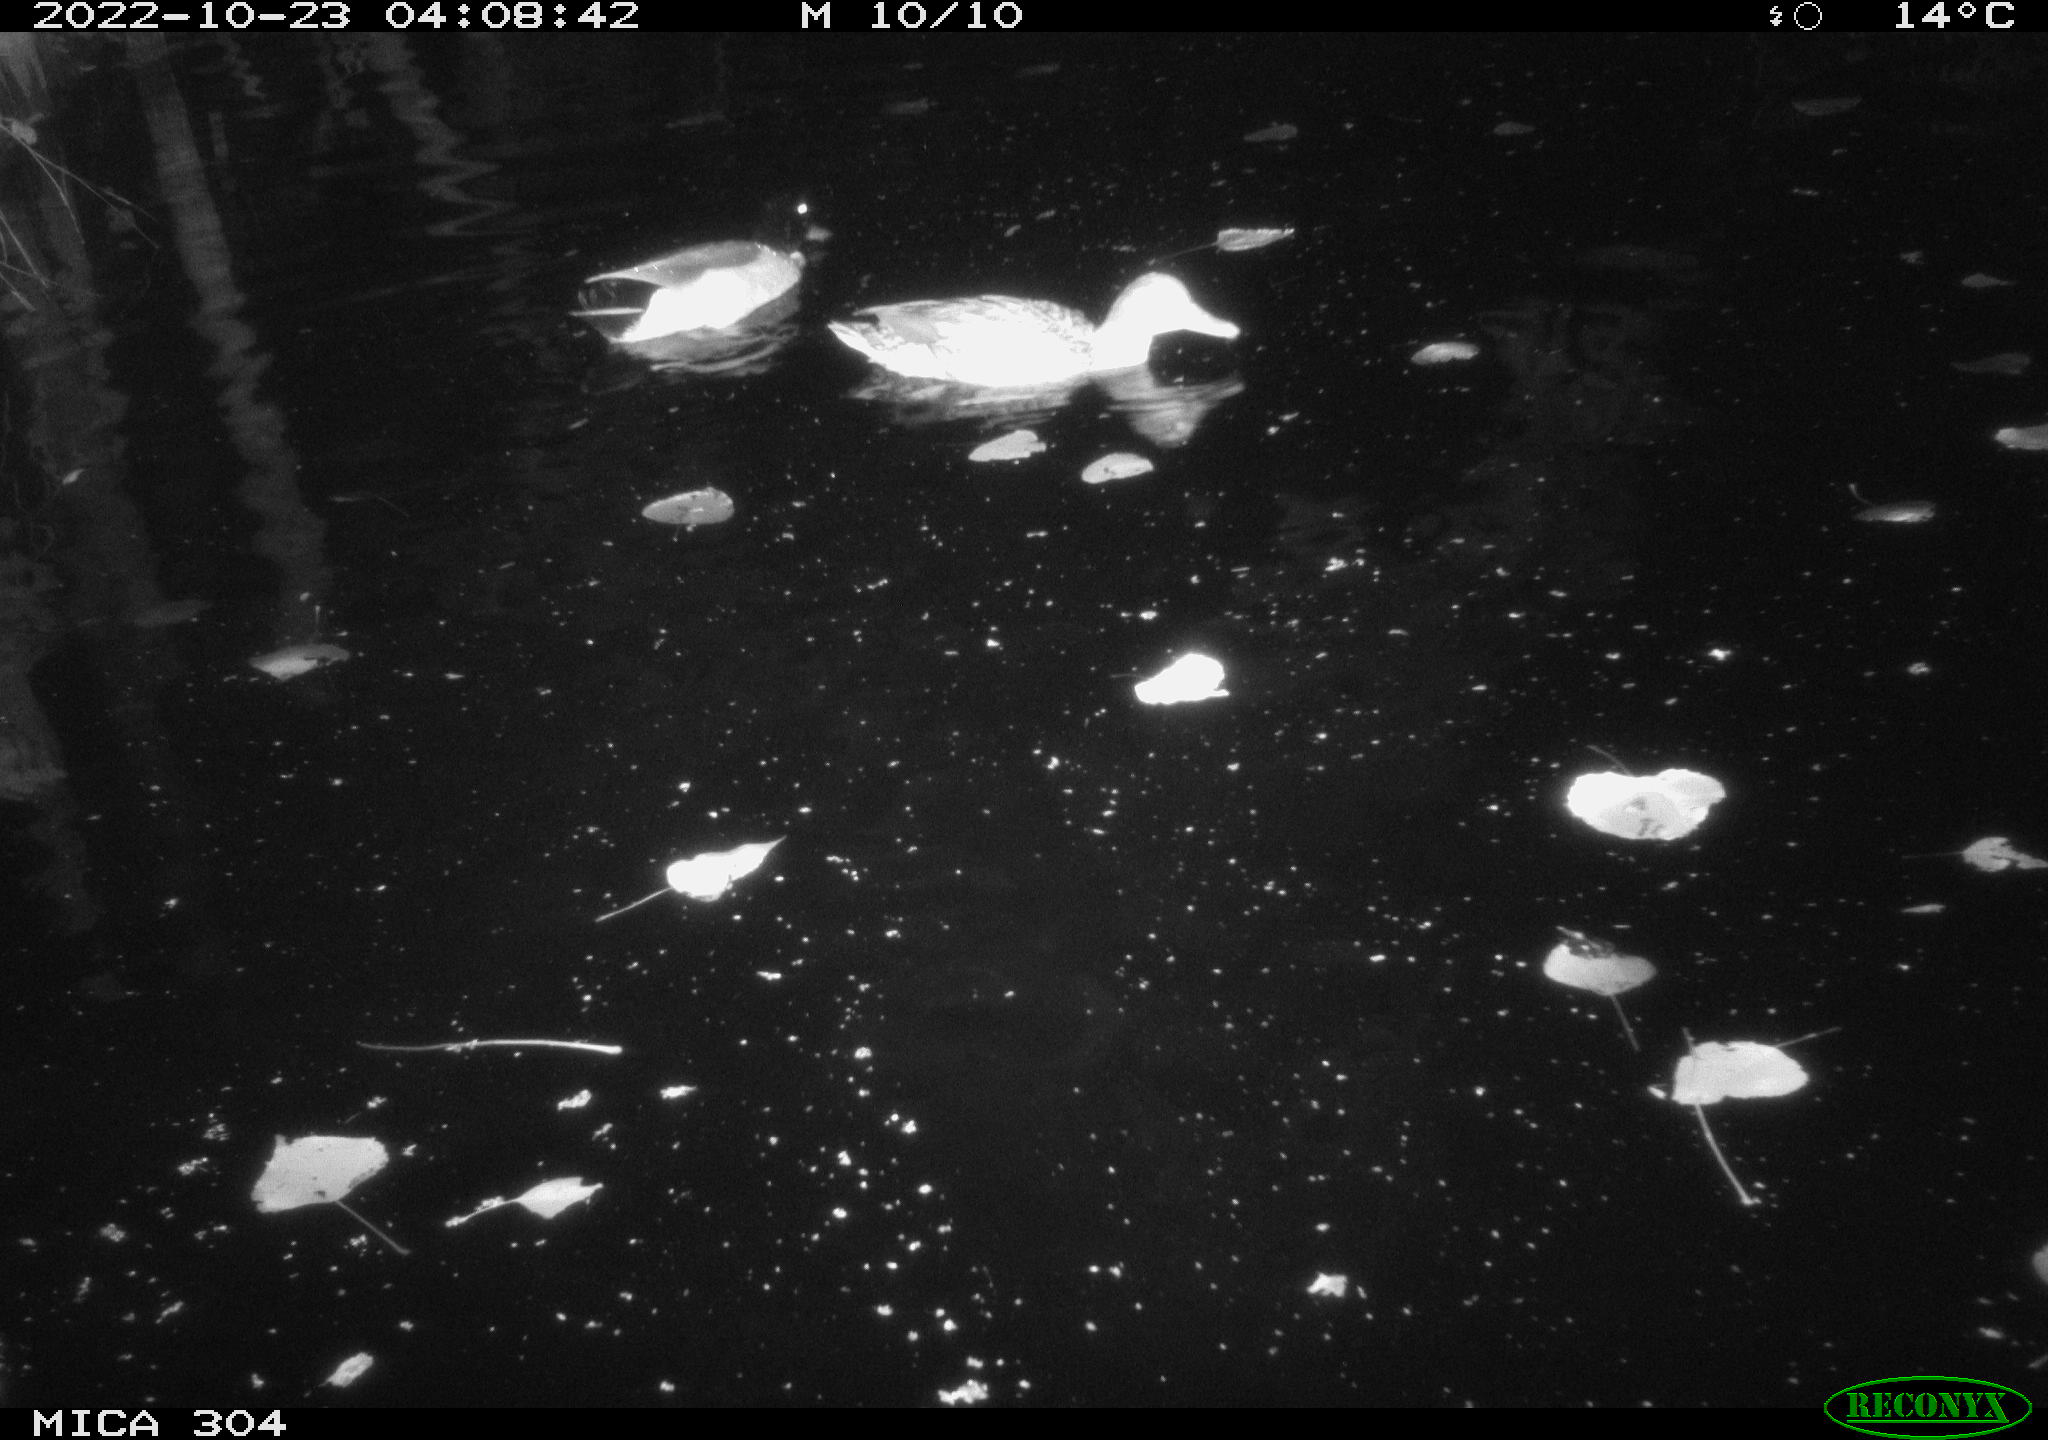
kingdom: Animalia
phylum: Chordata
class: Aves
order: Anseriformes
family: Anatidae
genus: Anas
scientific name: Anas
